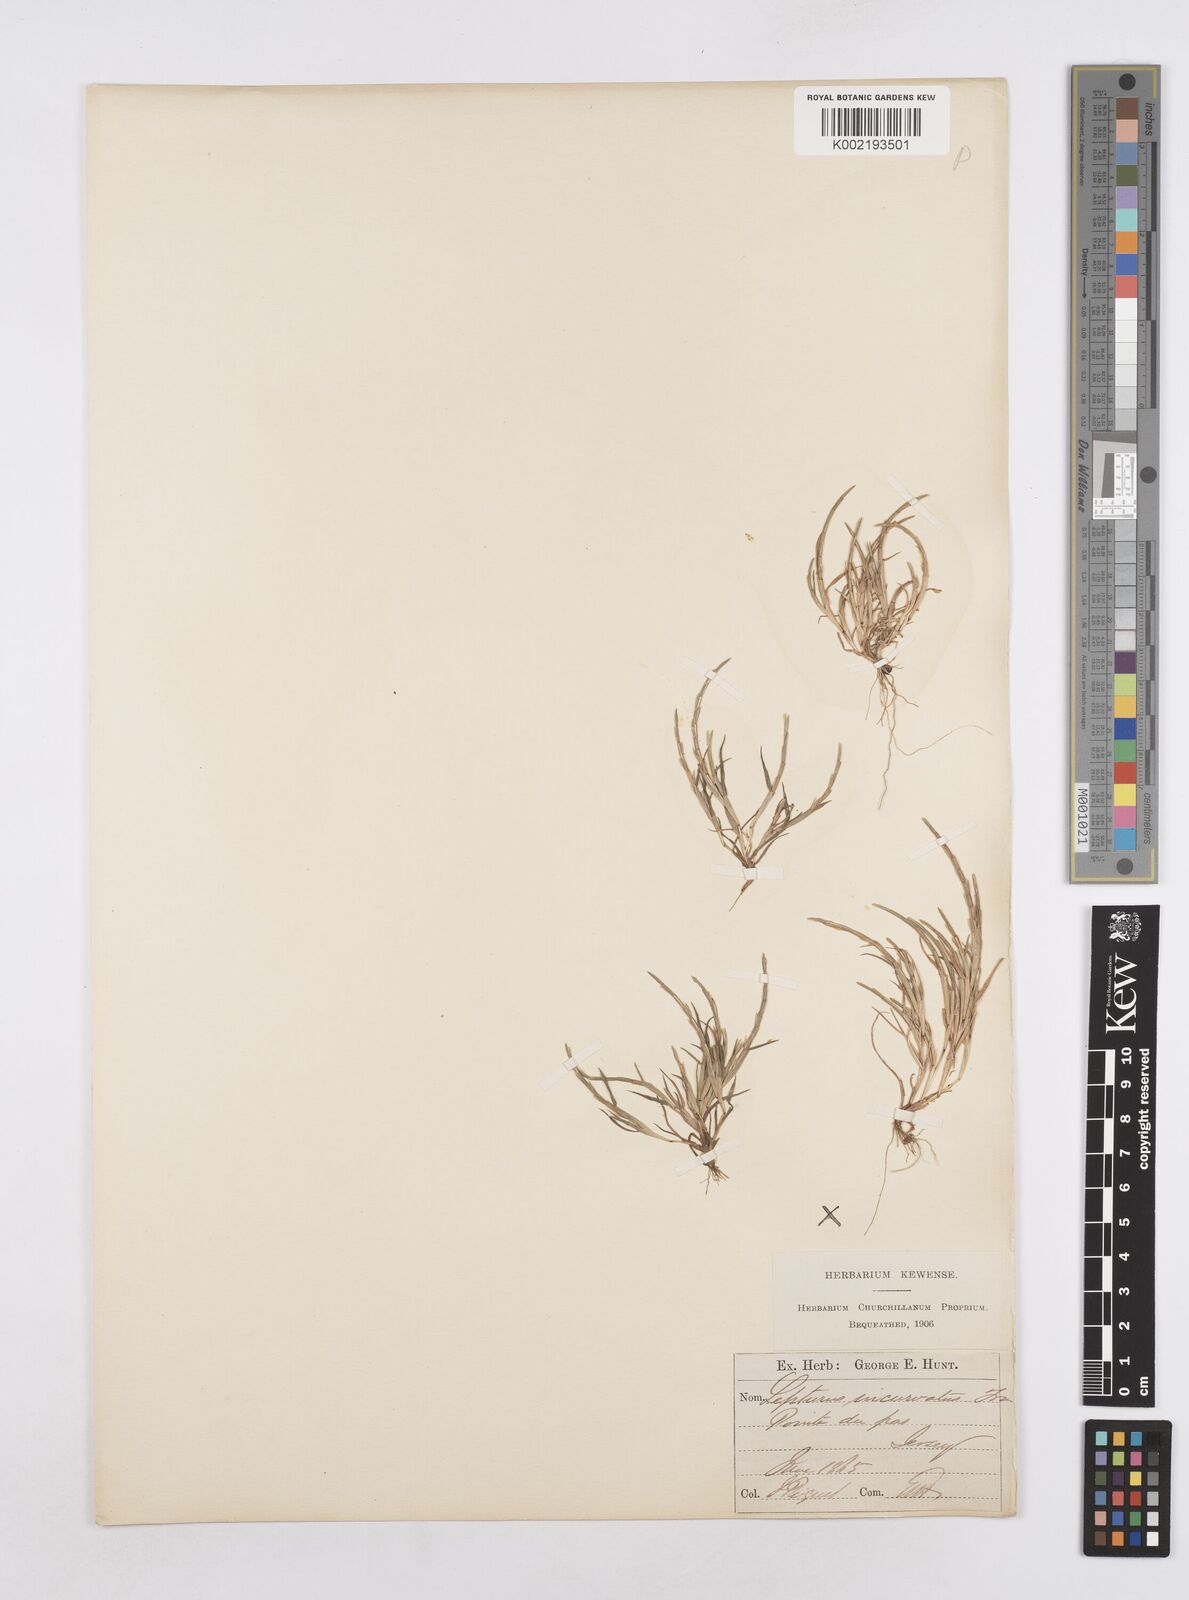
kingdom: Plantae
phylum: Tracheophyta
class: Liliopsida
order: Poales
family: Poaceae
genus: Parapholis
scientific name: Parapholis incurva
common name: Curved sicklegrass
